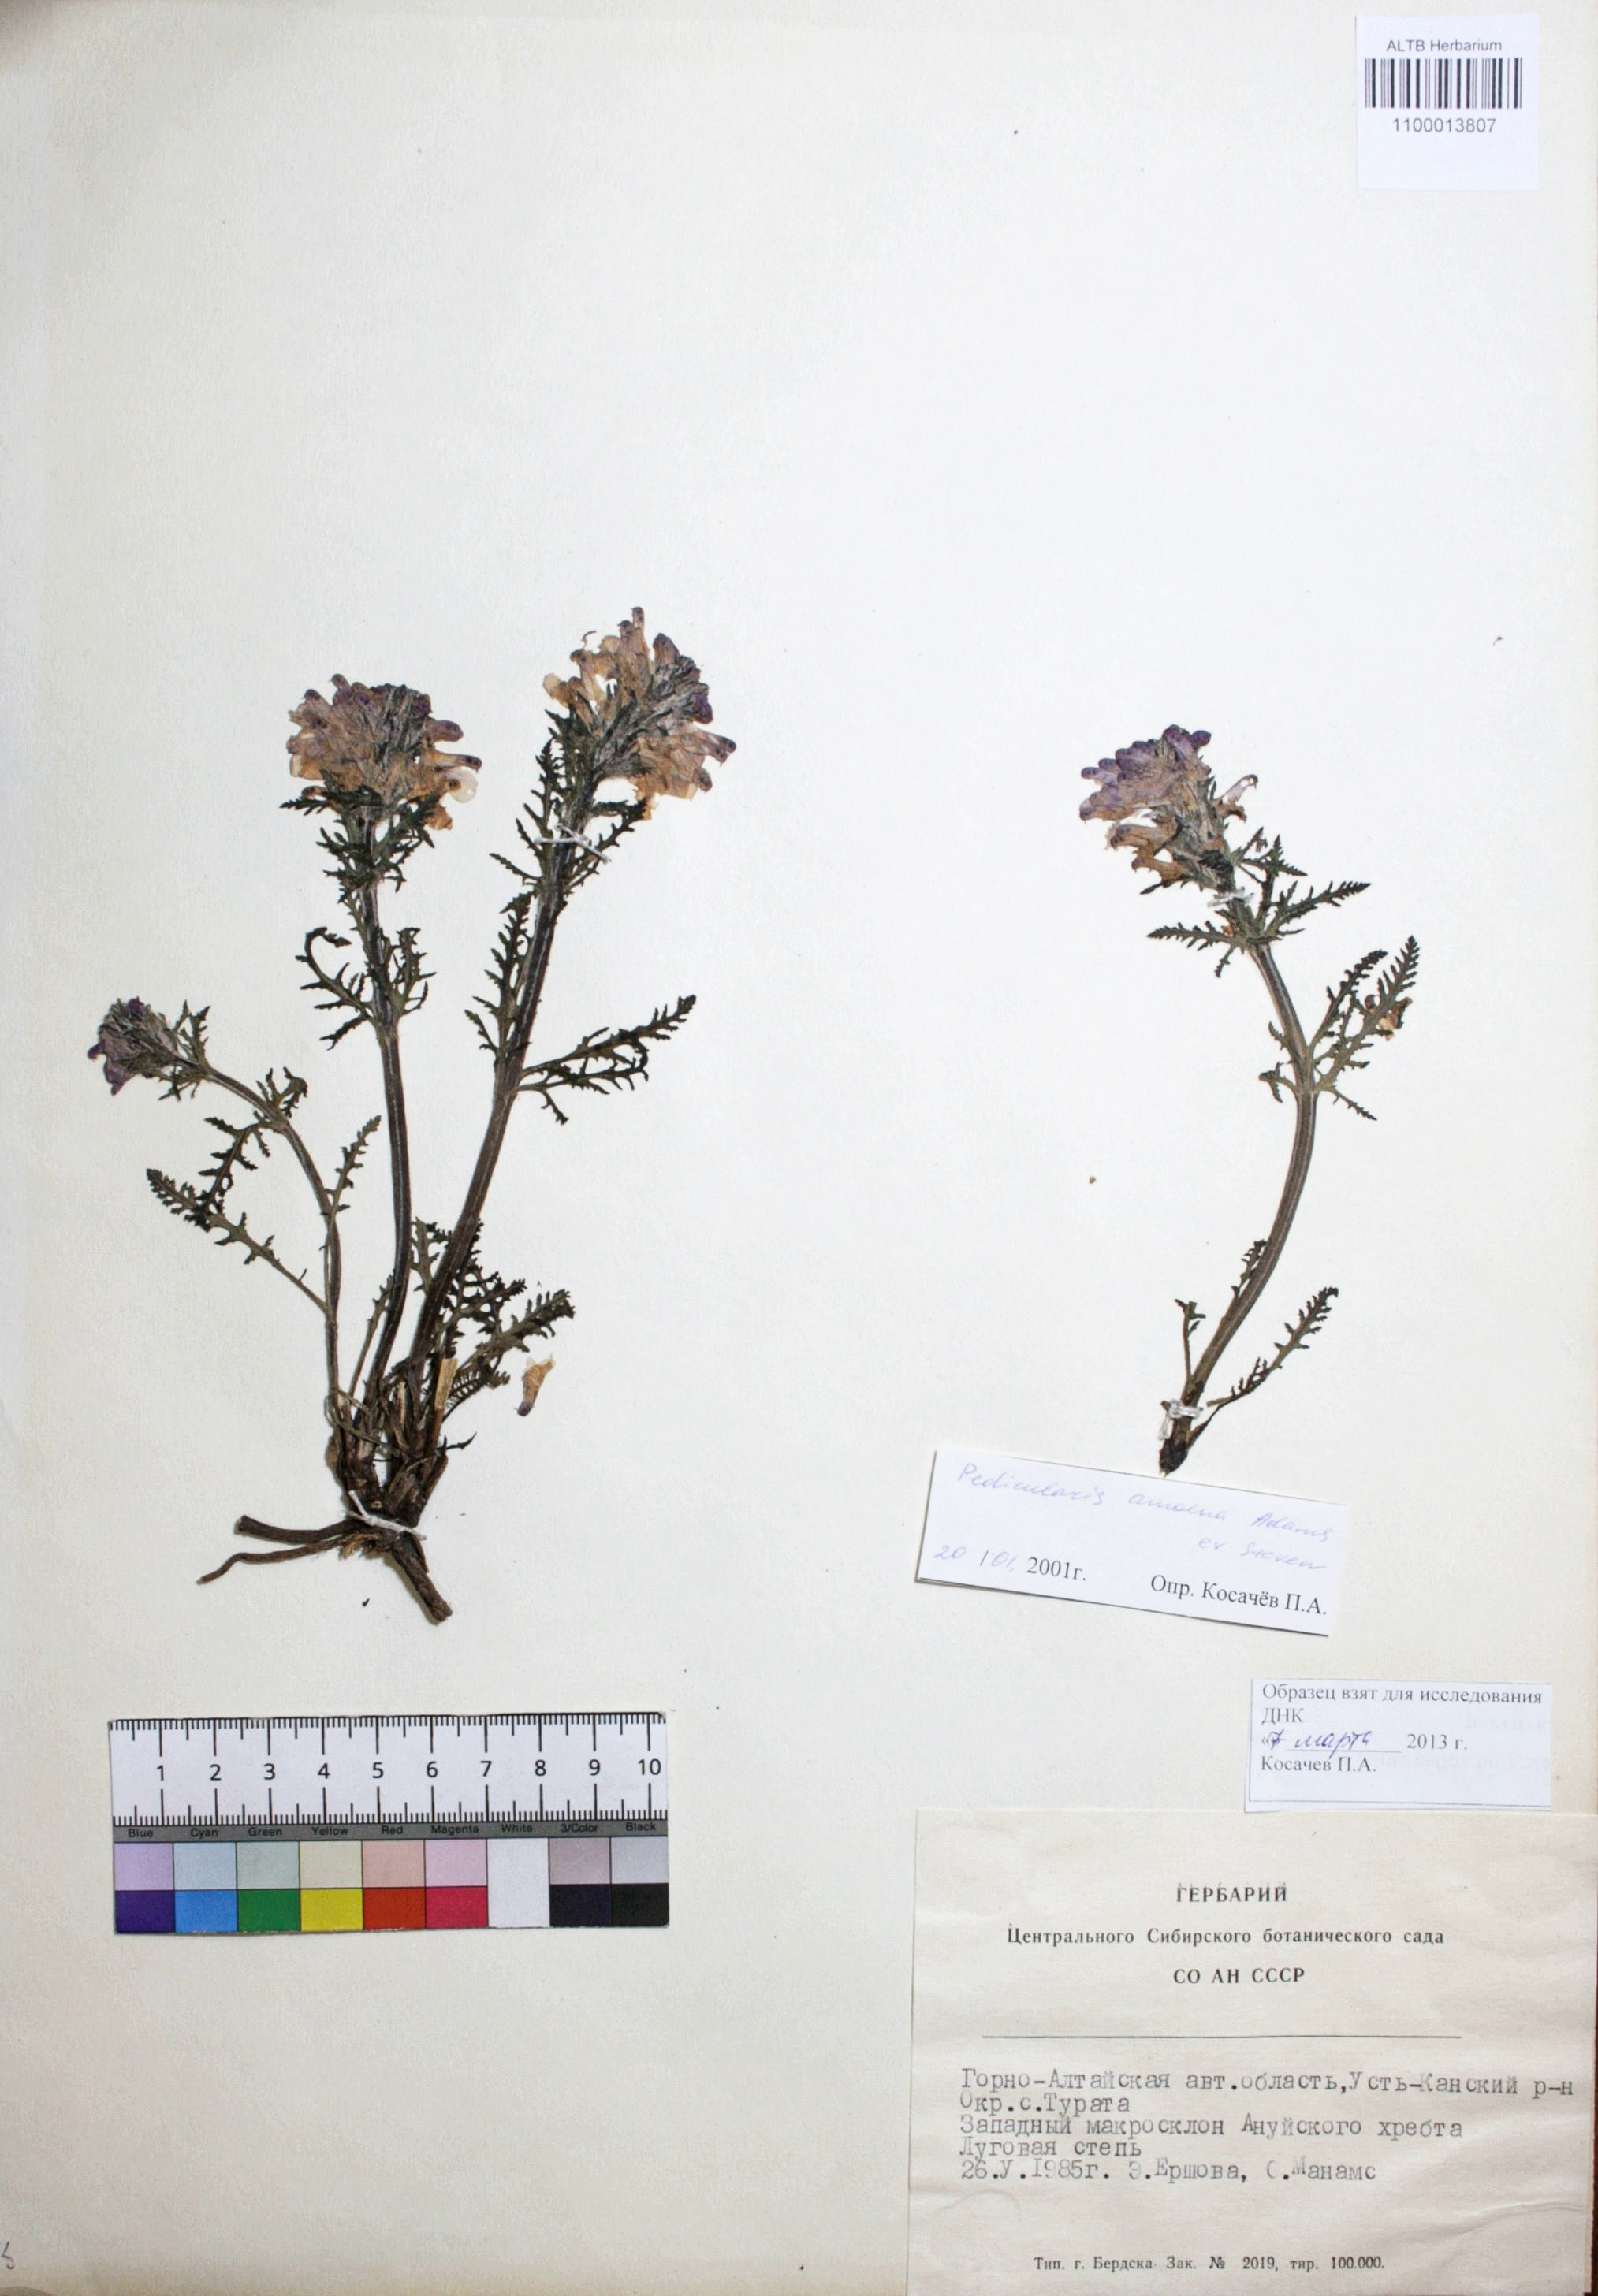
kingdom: Plantae
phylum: Tracheophyta
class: Magnoliopsida
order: Lamiales
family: Orobanchaceae
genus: Pedicularis
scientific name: Pedicularis amoena
